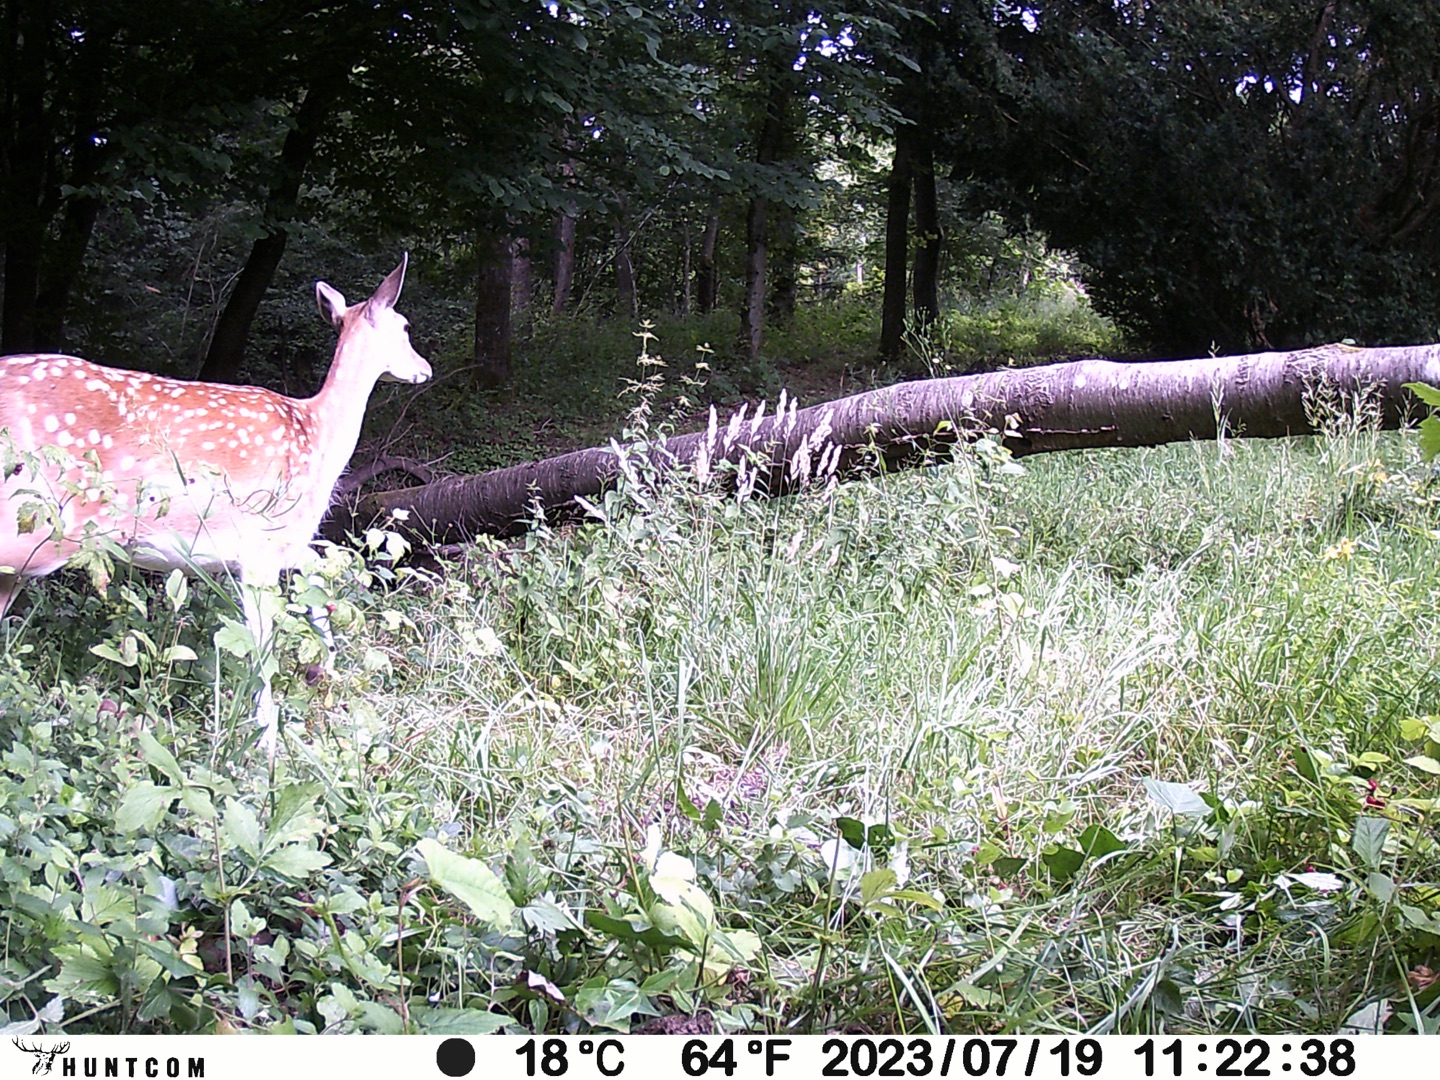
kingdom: Animalia
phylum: Chordata
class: Mammalia
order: Artiodactyla
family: Cervidae
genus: Dama
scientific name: Dama dama
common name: Dådyr
